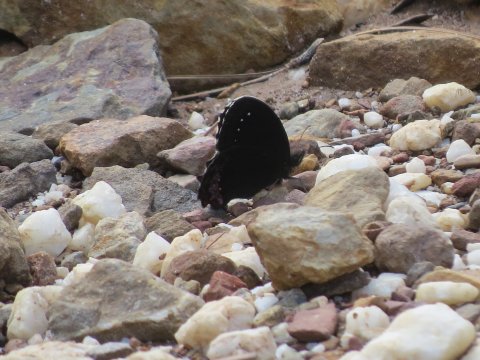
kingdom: Animalia
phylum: Arthropoda
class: Insecta
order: Lepidoptera
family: Nymphalidae
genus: Gyrocheilus
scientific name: Gyrocheilus patrobas
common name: Red-bordered Satyr
